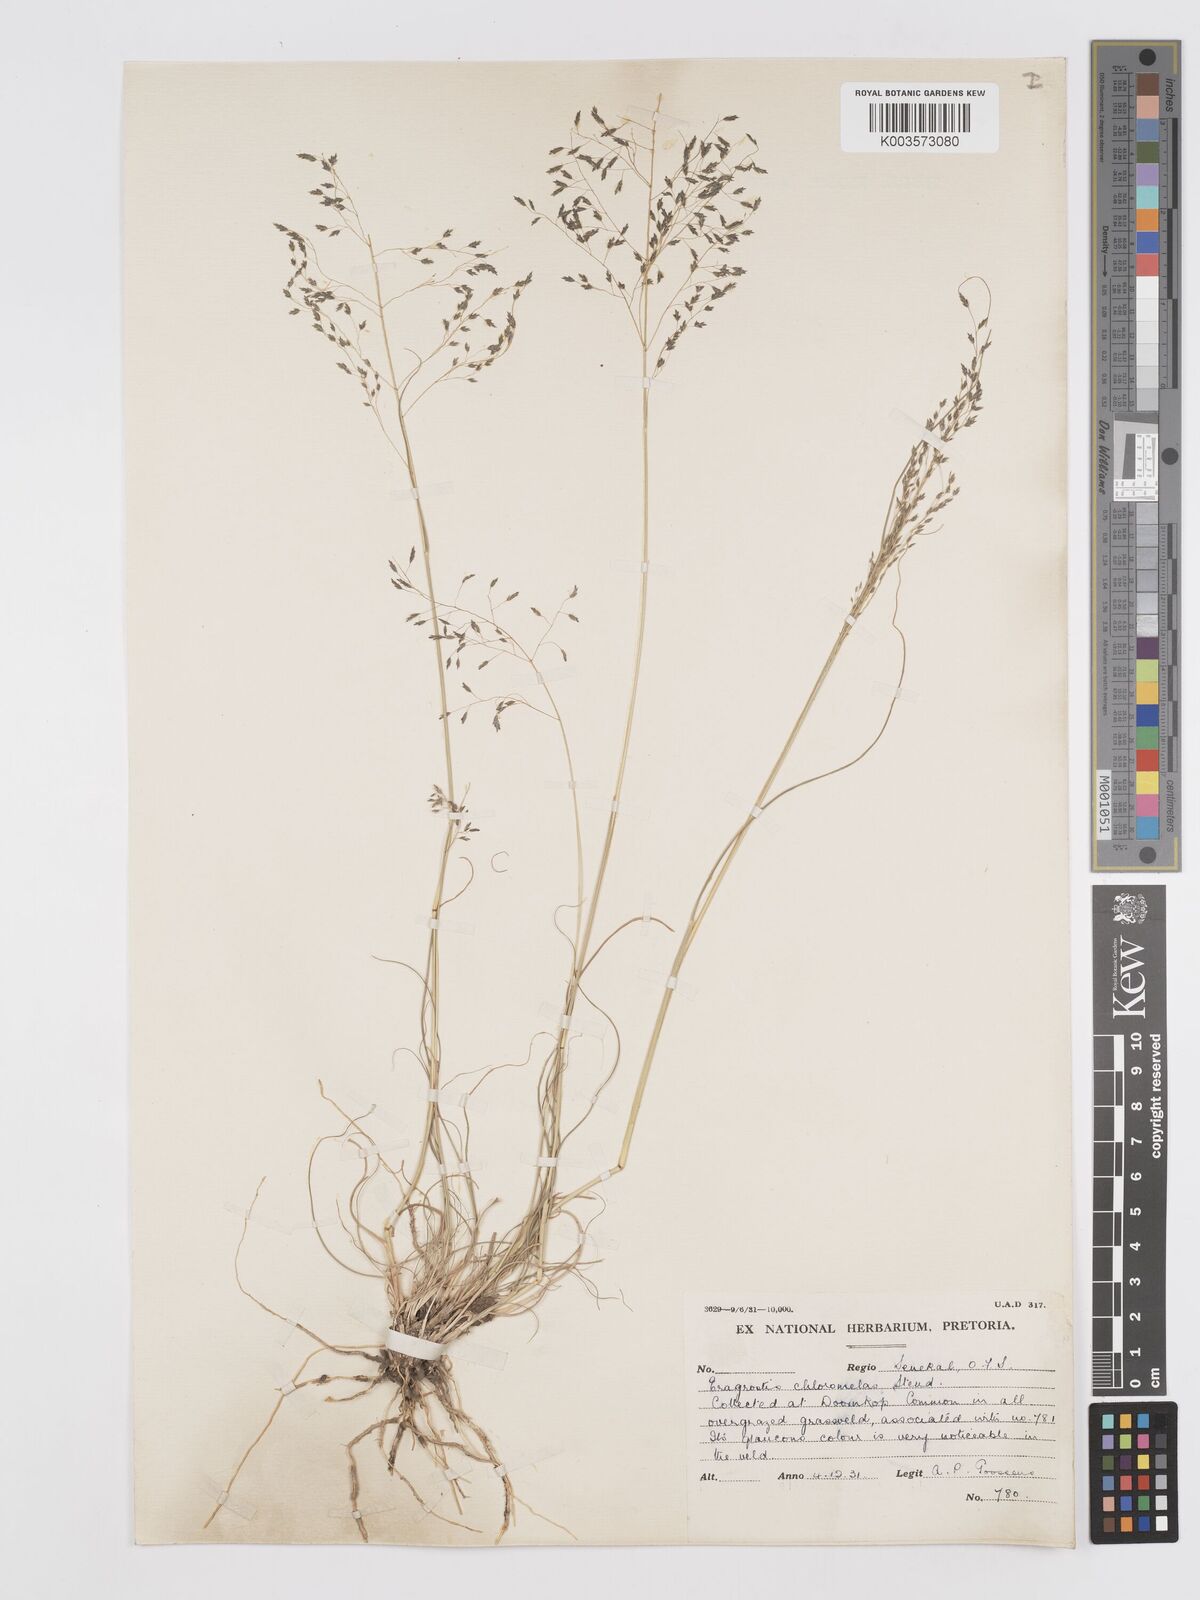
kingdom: Plantae
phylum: Tracheophyta
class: Liliopsida
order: Poales
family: Poaceae
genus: Eragrostis
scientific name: Eragrostis curvula
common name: African love-grass
